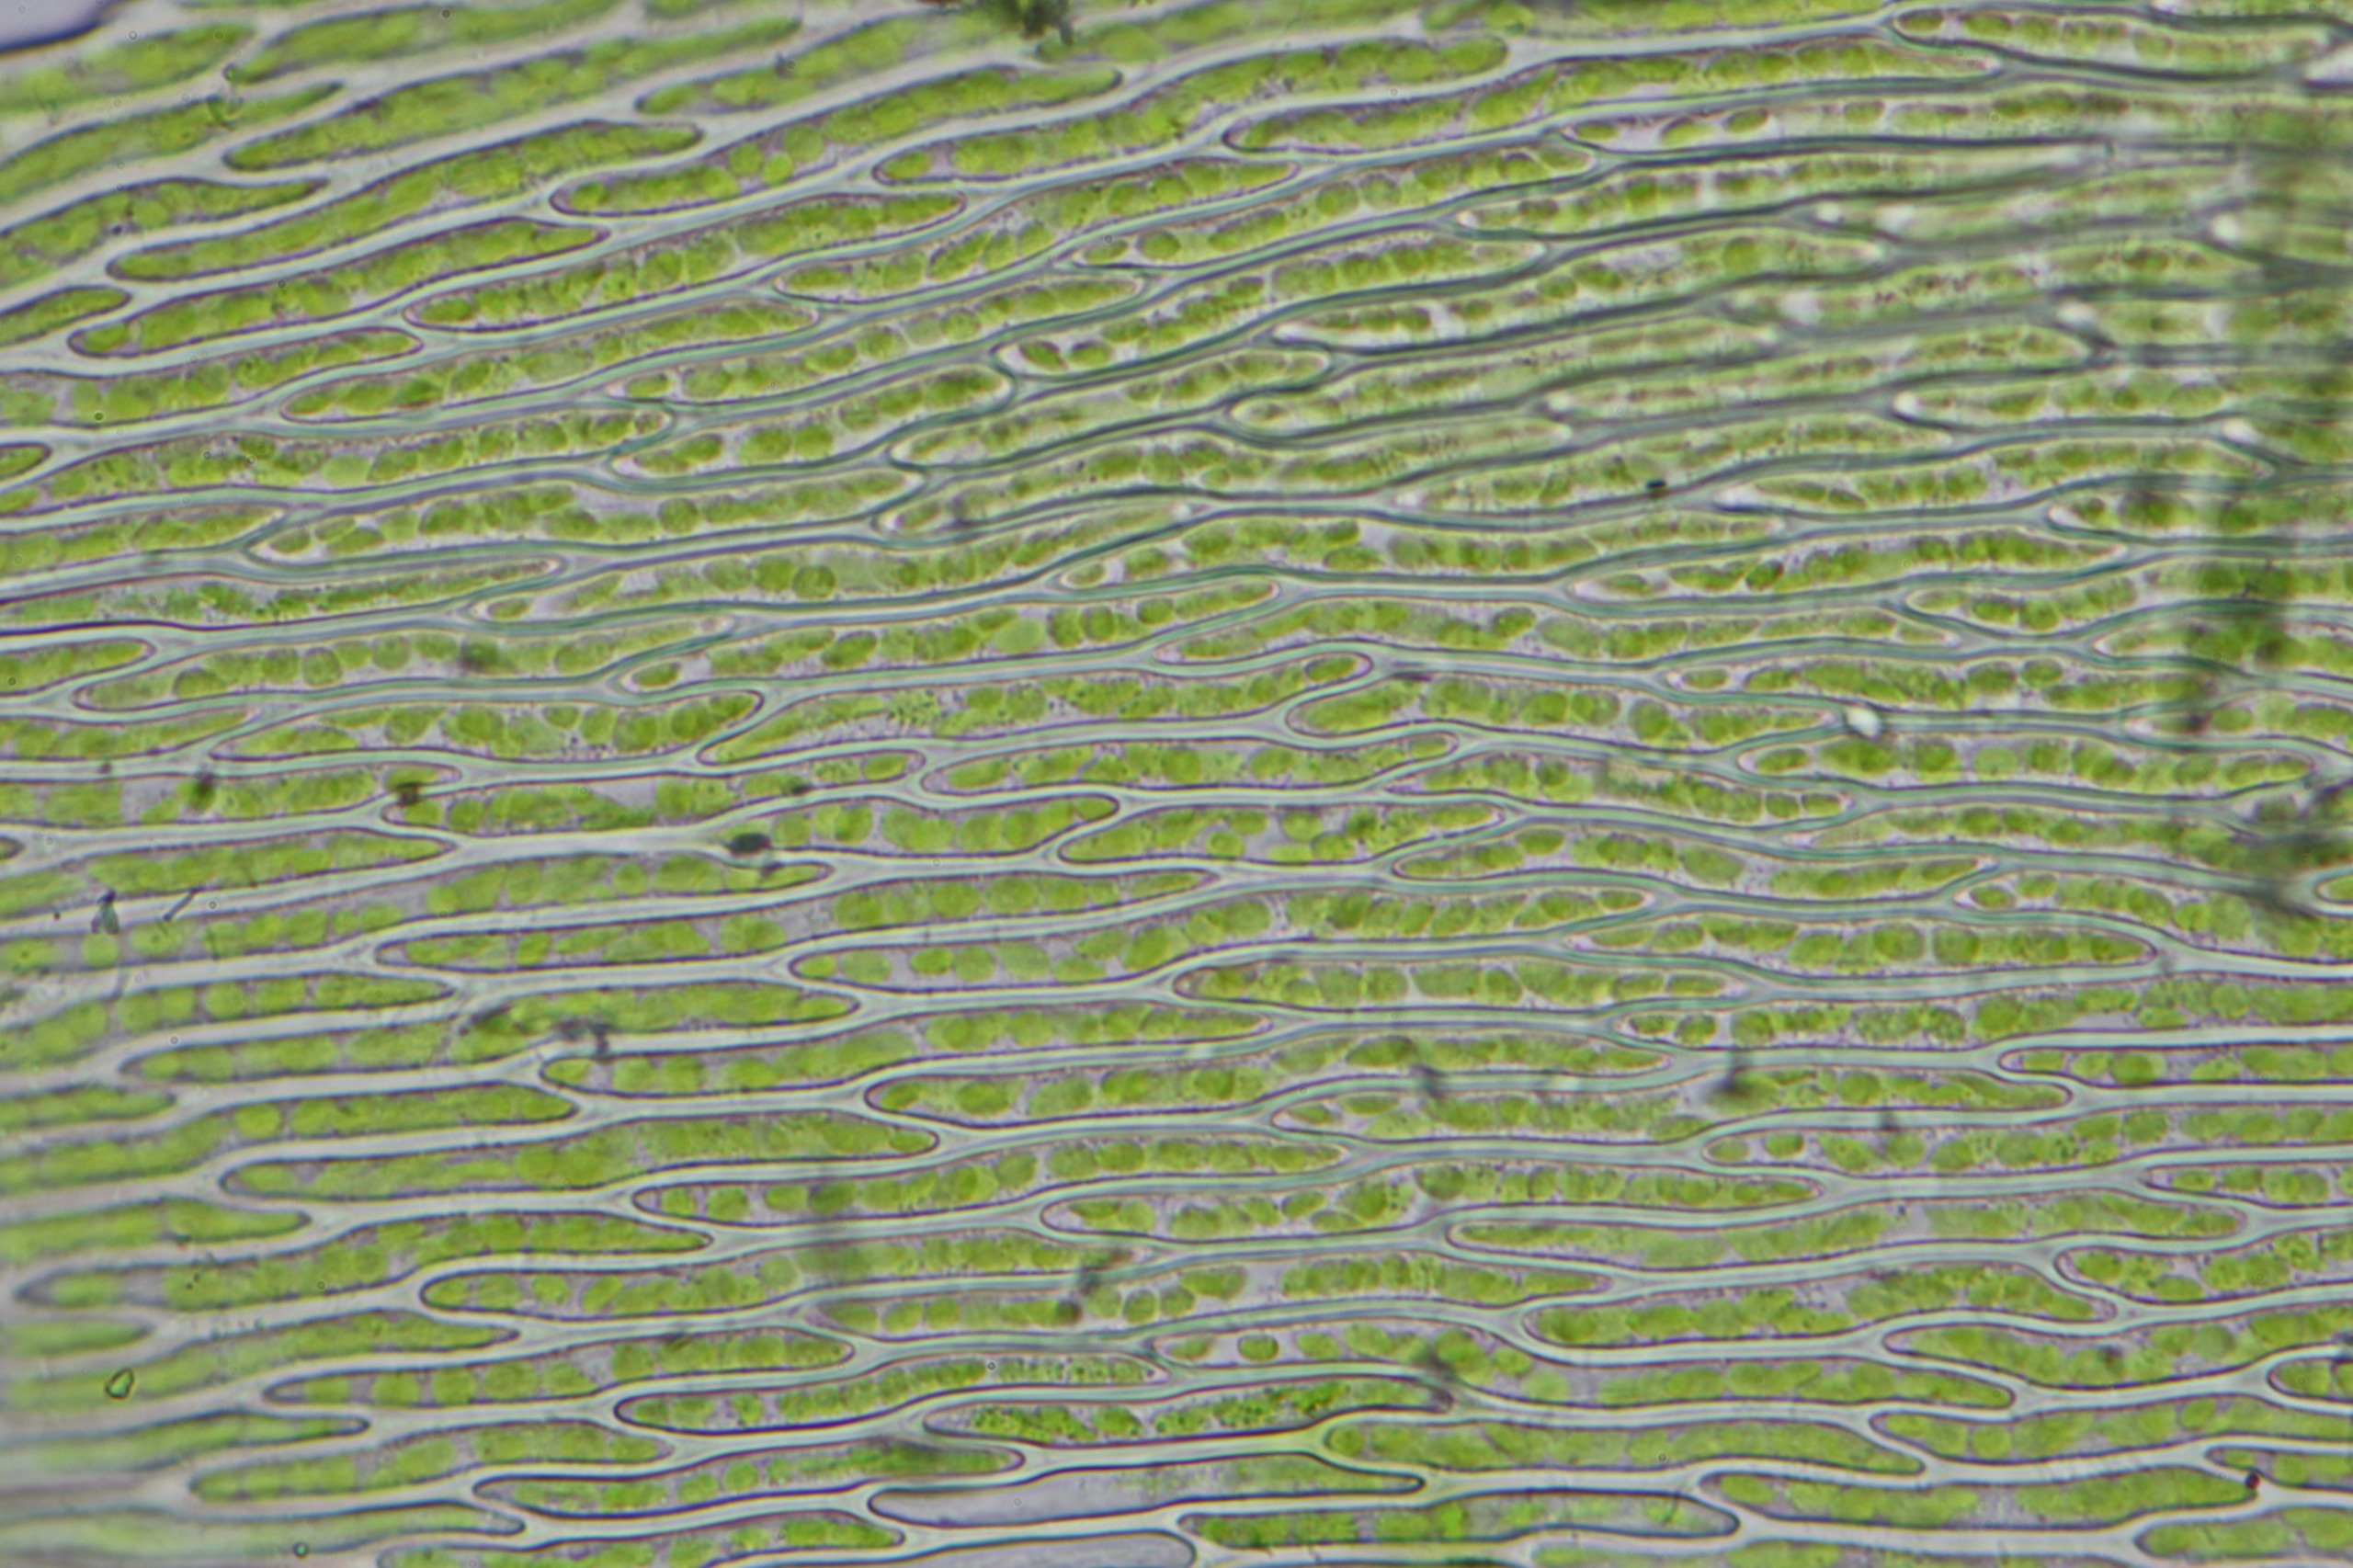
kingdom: Plantae
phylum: Bryophyta
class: Bryopsida
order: Hypnales
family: Brachytheciaceae
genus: Rhynchostegium
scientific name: Rhynchostegium confertum
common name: Skov-langnæb
